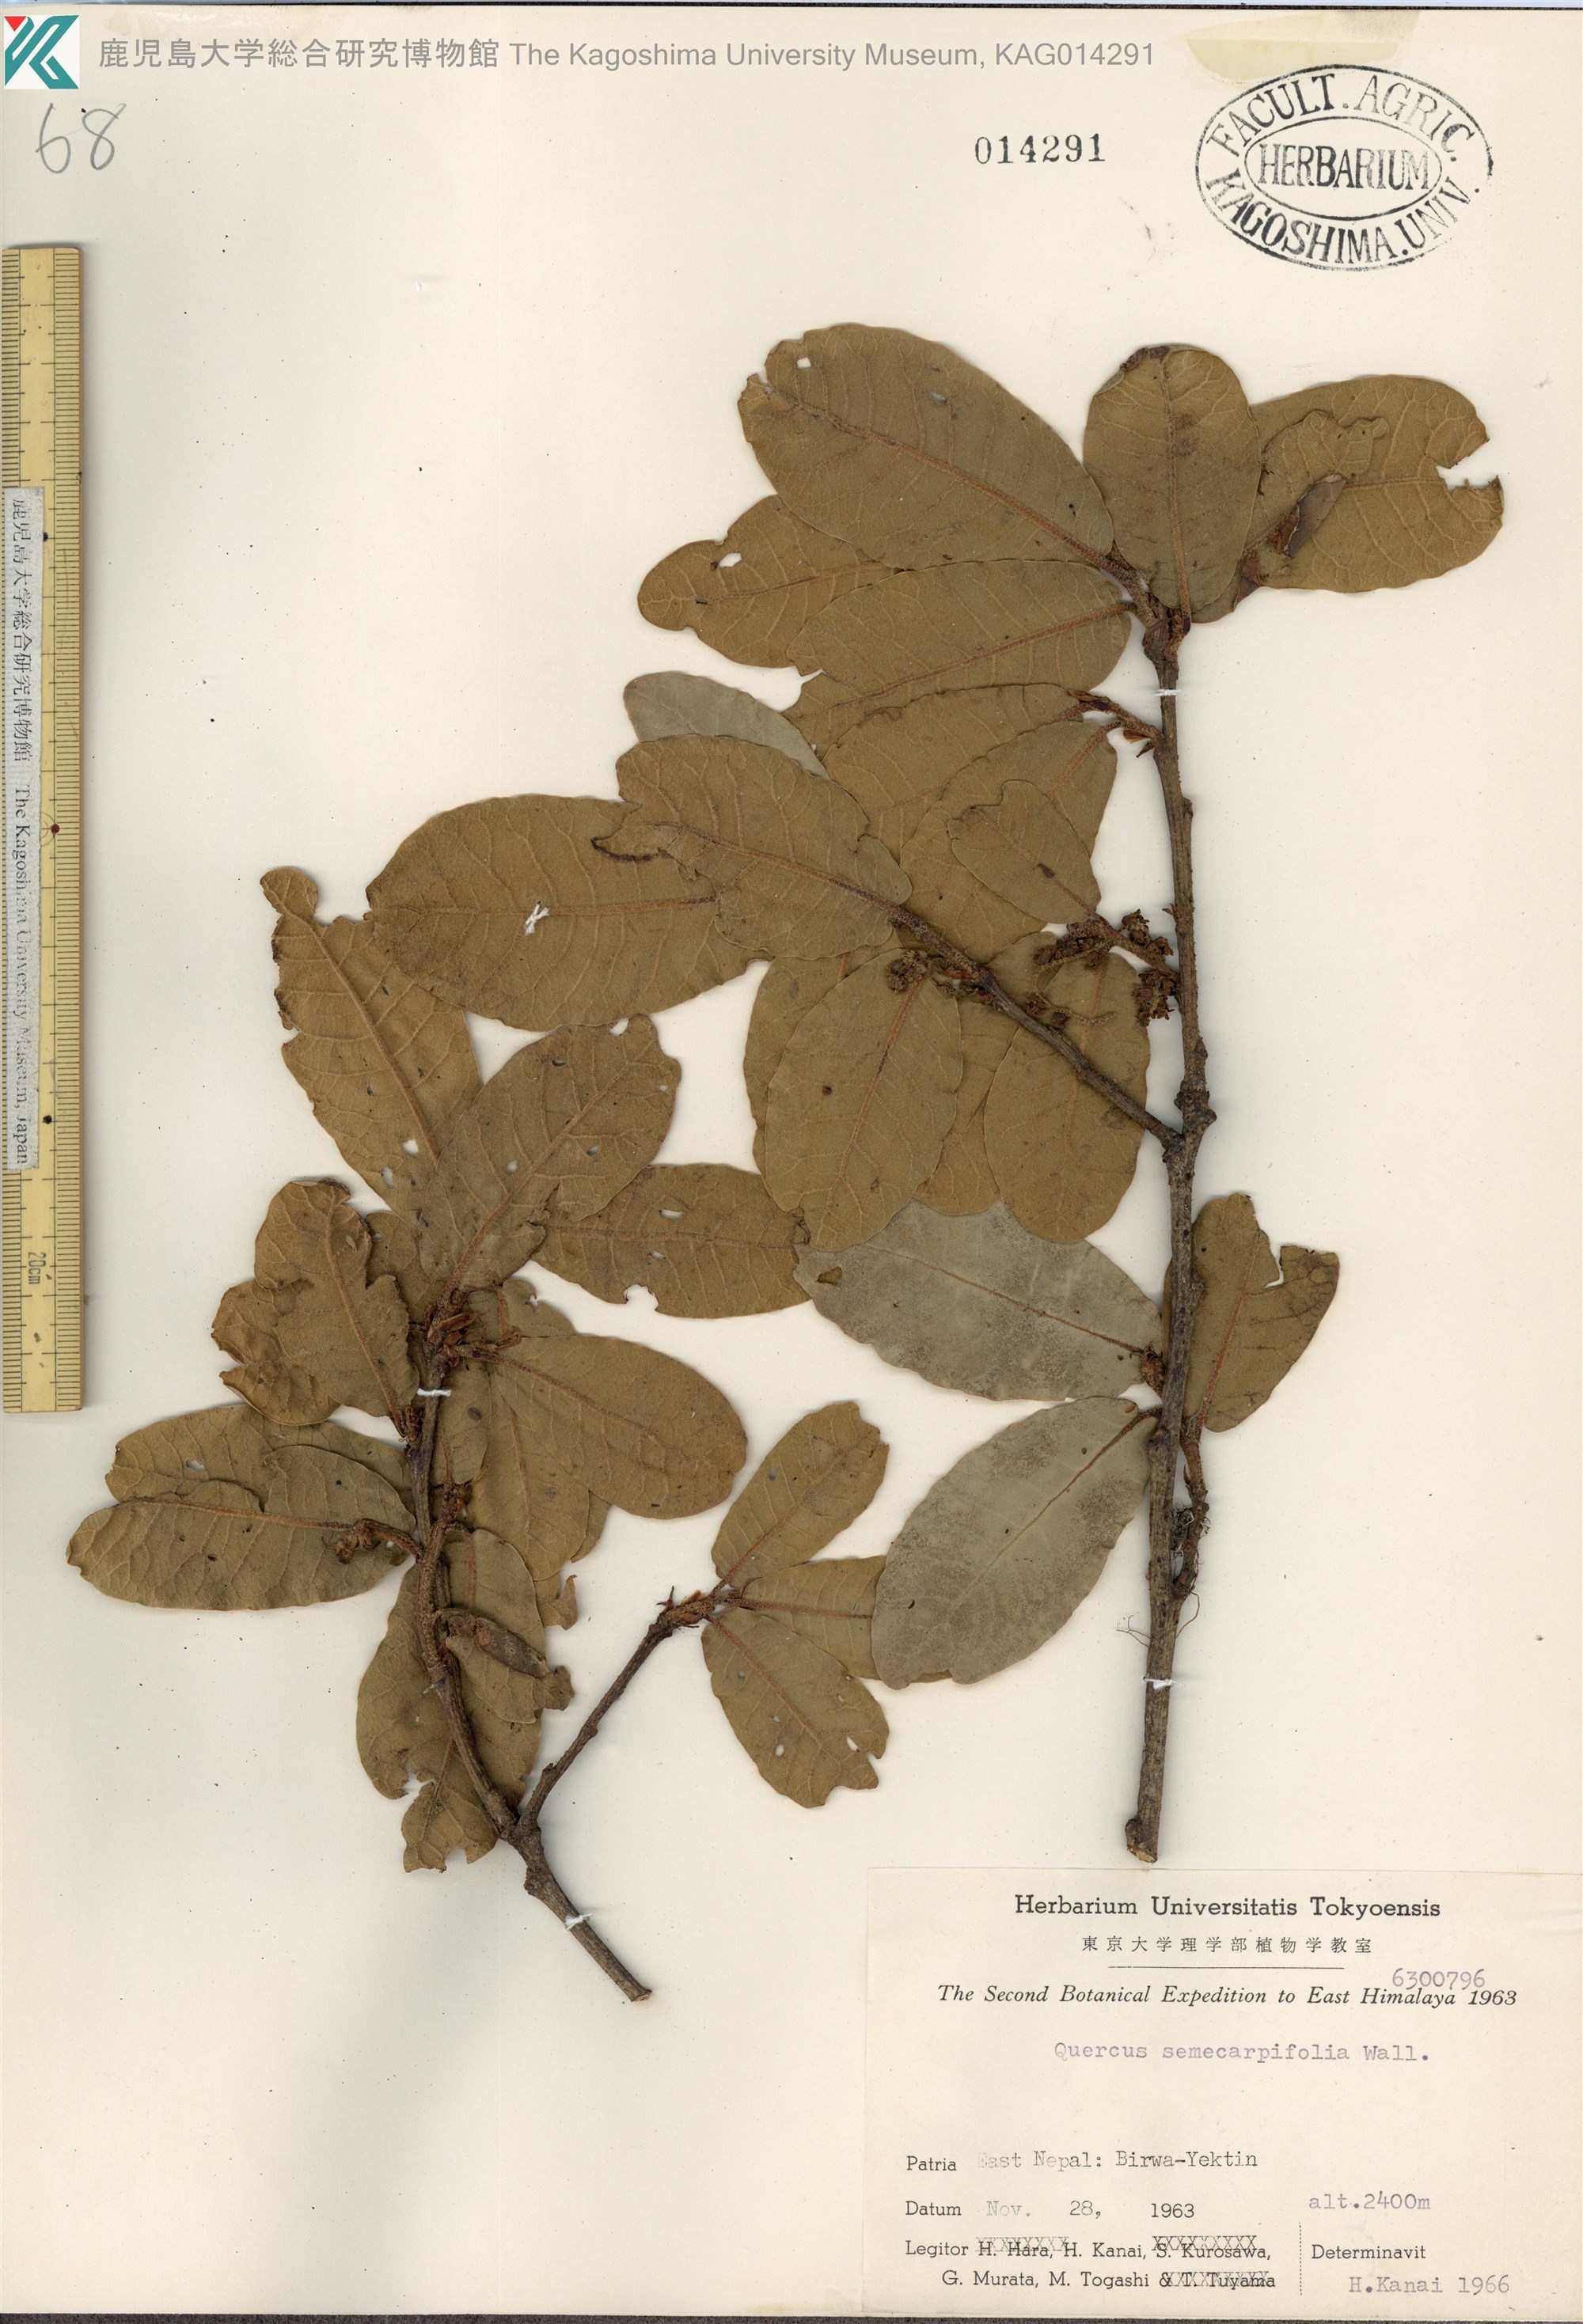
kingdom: Plantae
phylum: Tracheophyta
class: Magnoliopsida
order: Fagales
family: Fagaceae
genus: Quercus
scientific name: Quercus semecarpifolia
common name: Brown oak
